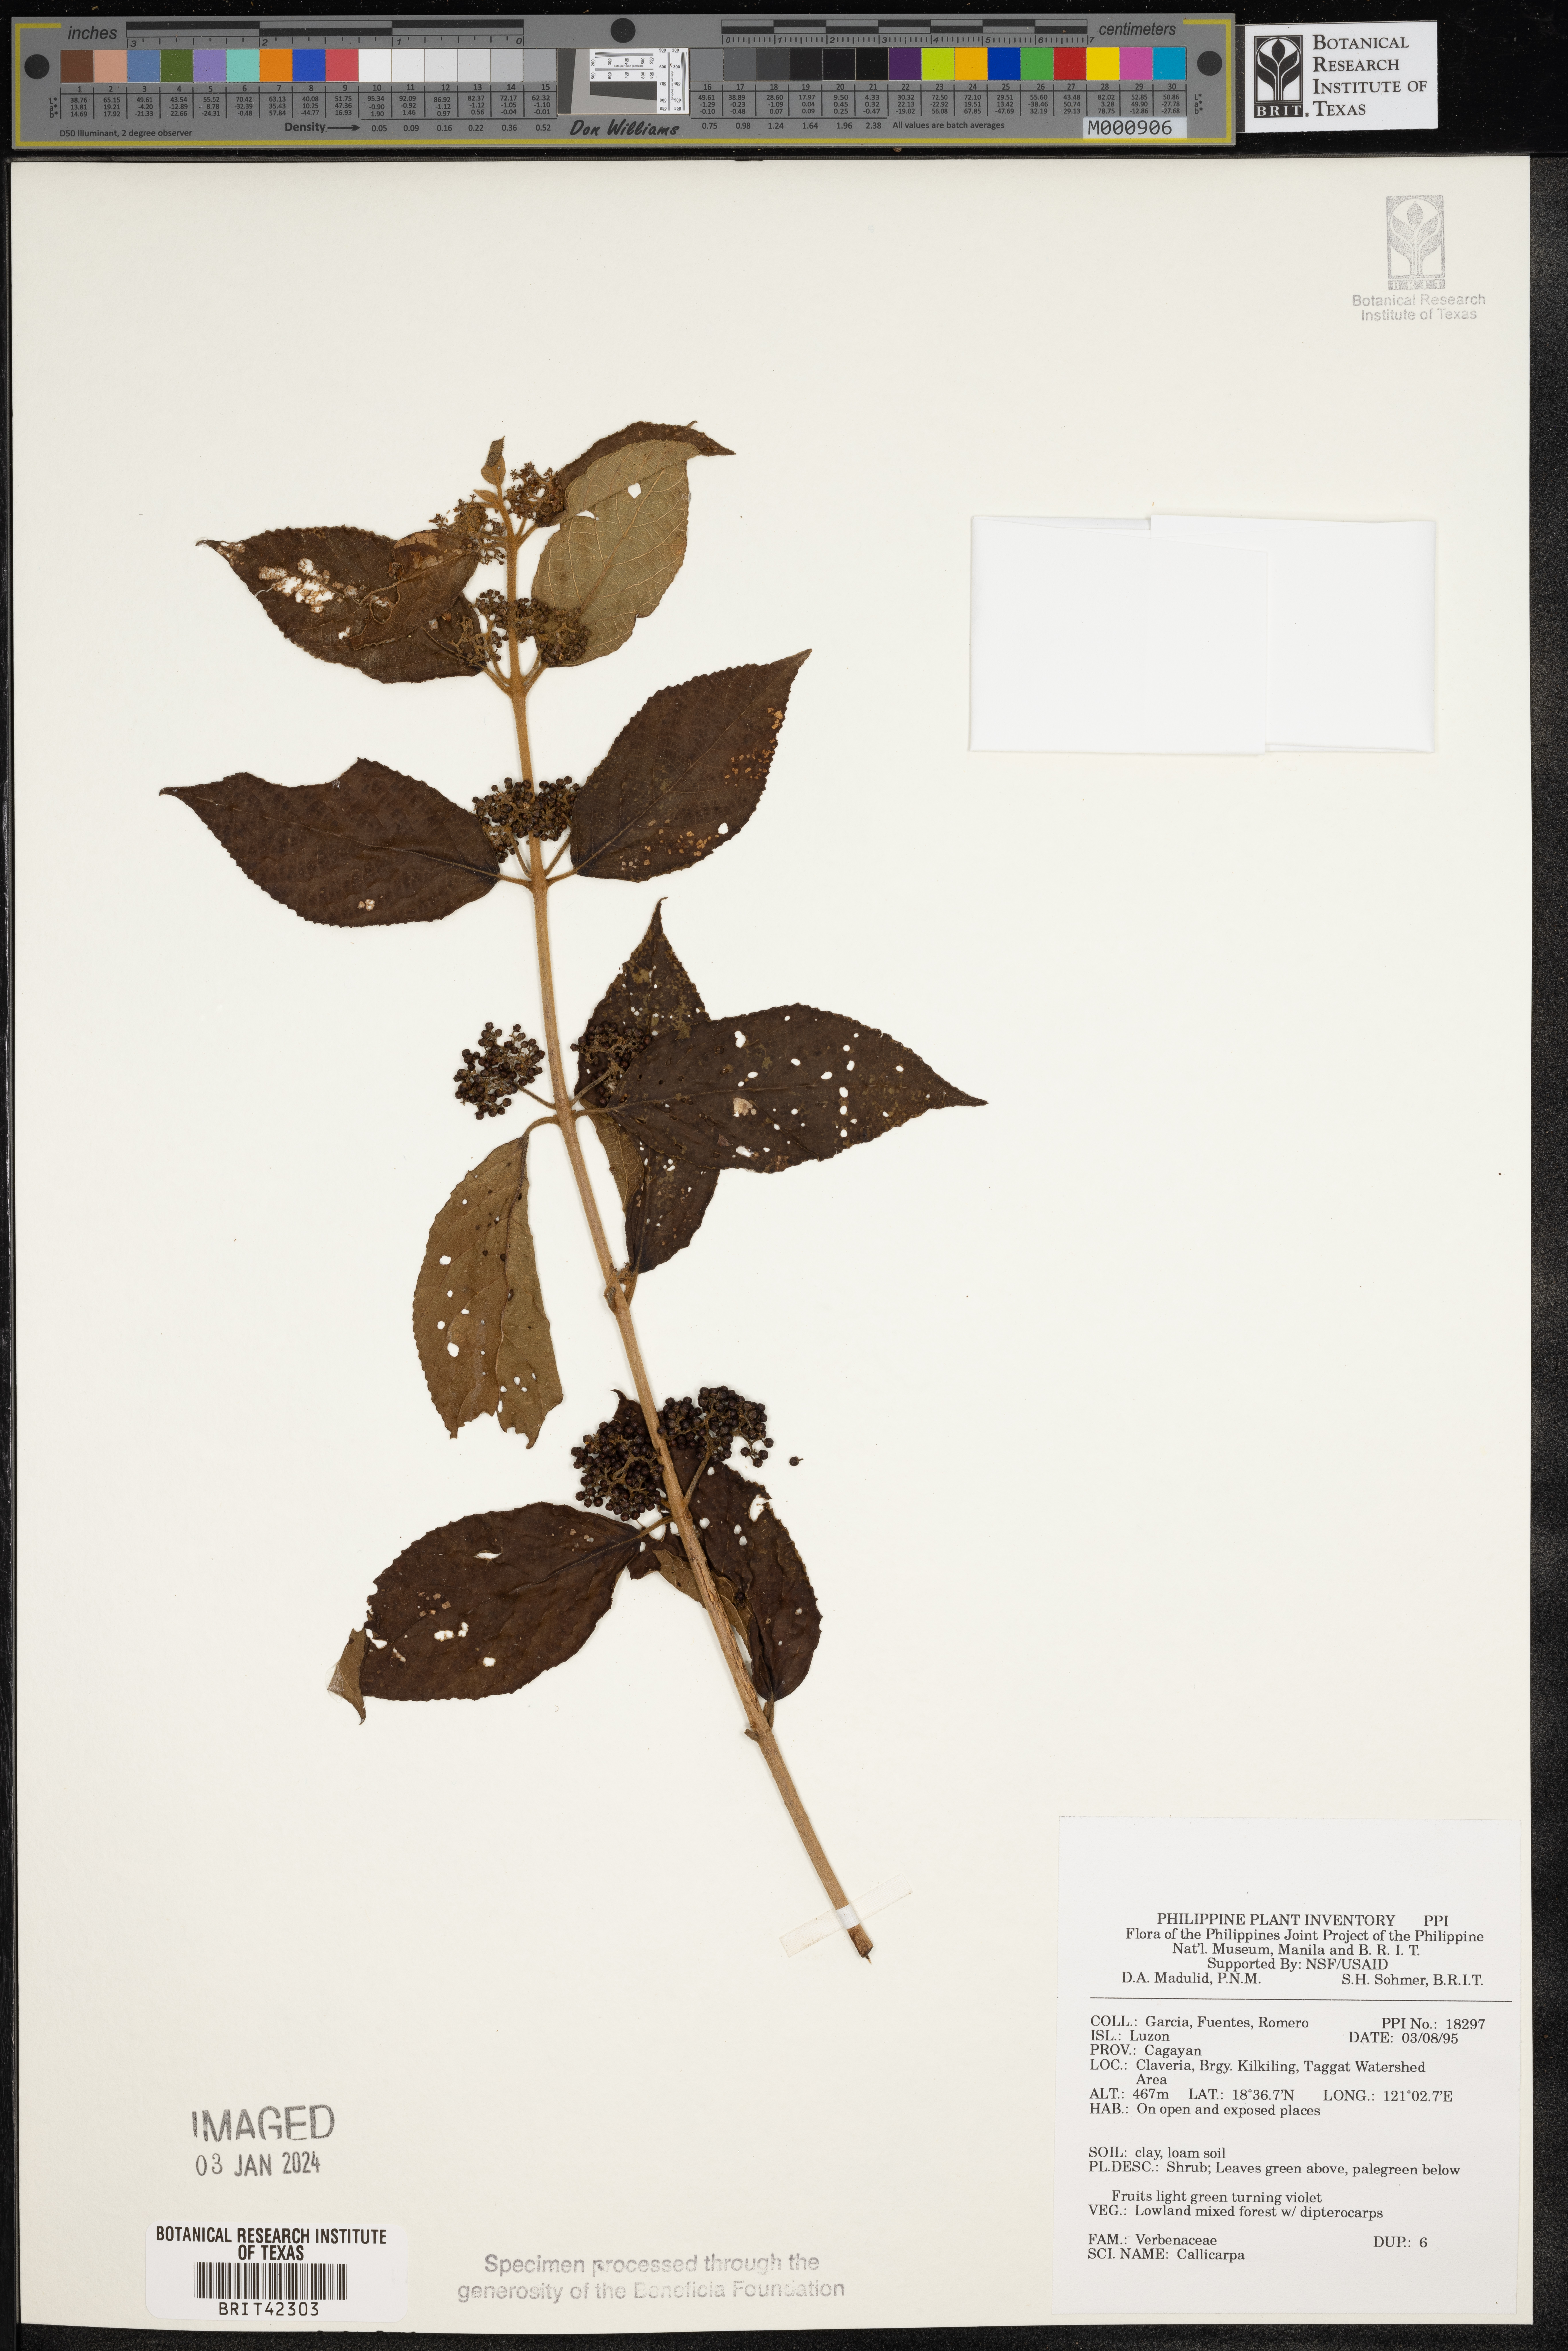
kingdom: Plantae
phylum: Tracheophyta
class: Magnoliopsida
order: Lamiales
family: Lamiaceae
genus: Callicarpa
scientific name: Callicarpa
